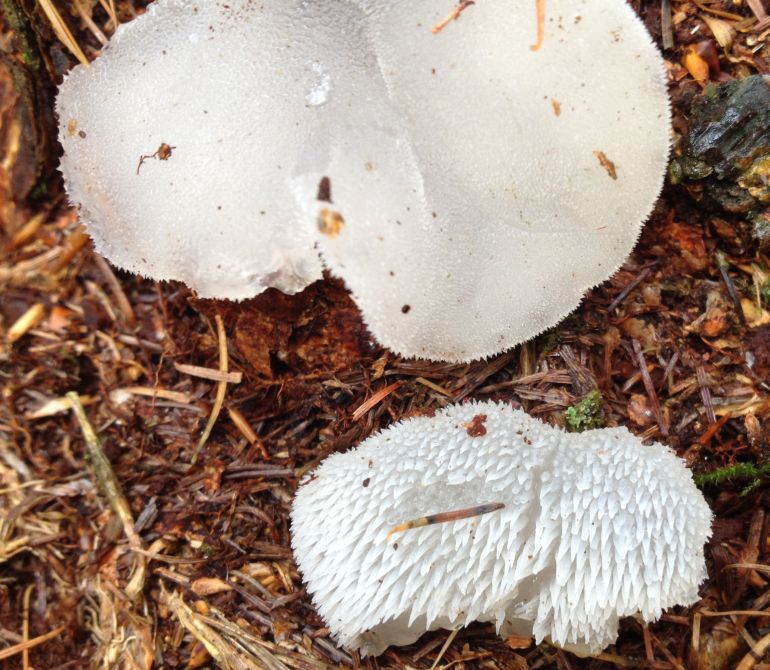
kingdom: Fungi
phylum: Basidiomycota
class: Agaricomycetes
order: Auriculariales
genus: Pseudohydnum
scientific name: Pseudohydnum gelatinosum
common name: bævretand
